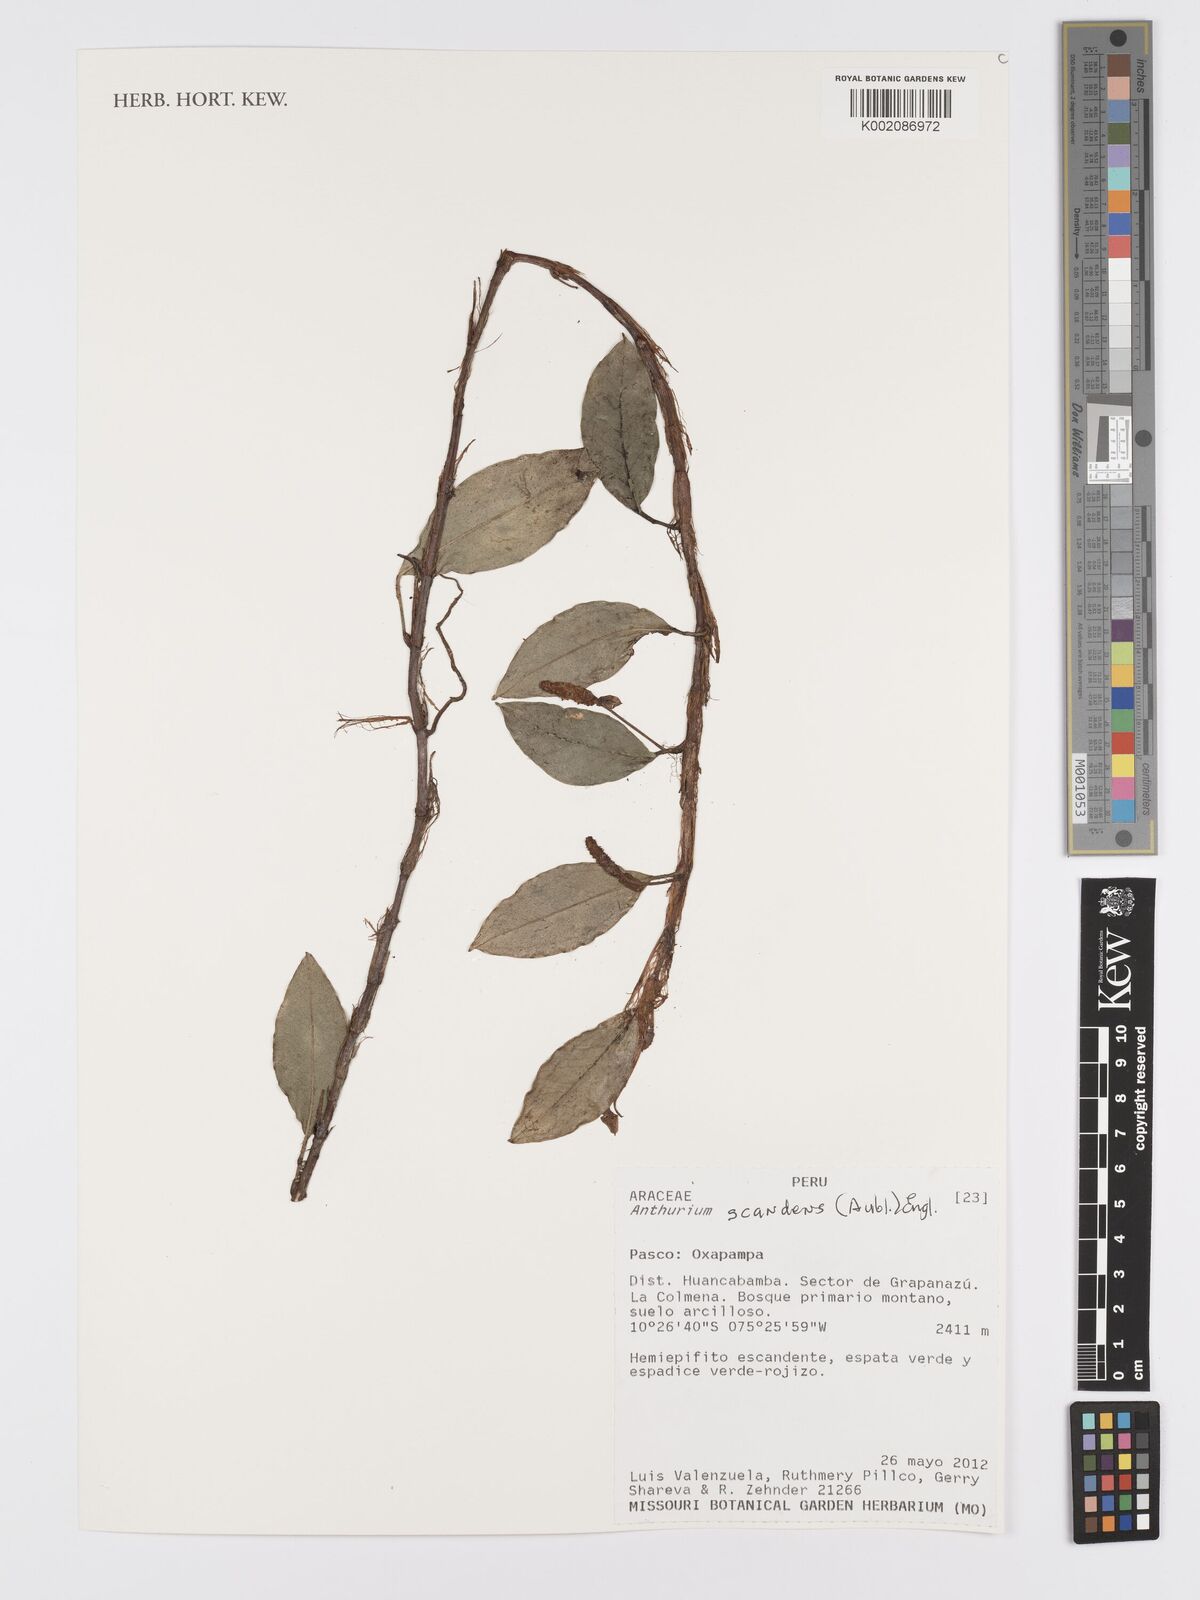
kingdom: Plantae
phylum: Tracheophyta
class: Liliopsida
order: Alismatales
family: Araceae
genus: Anthurium
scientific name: Anthurium scandens
